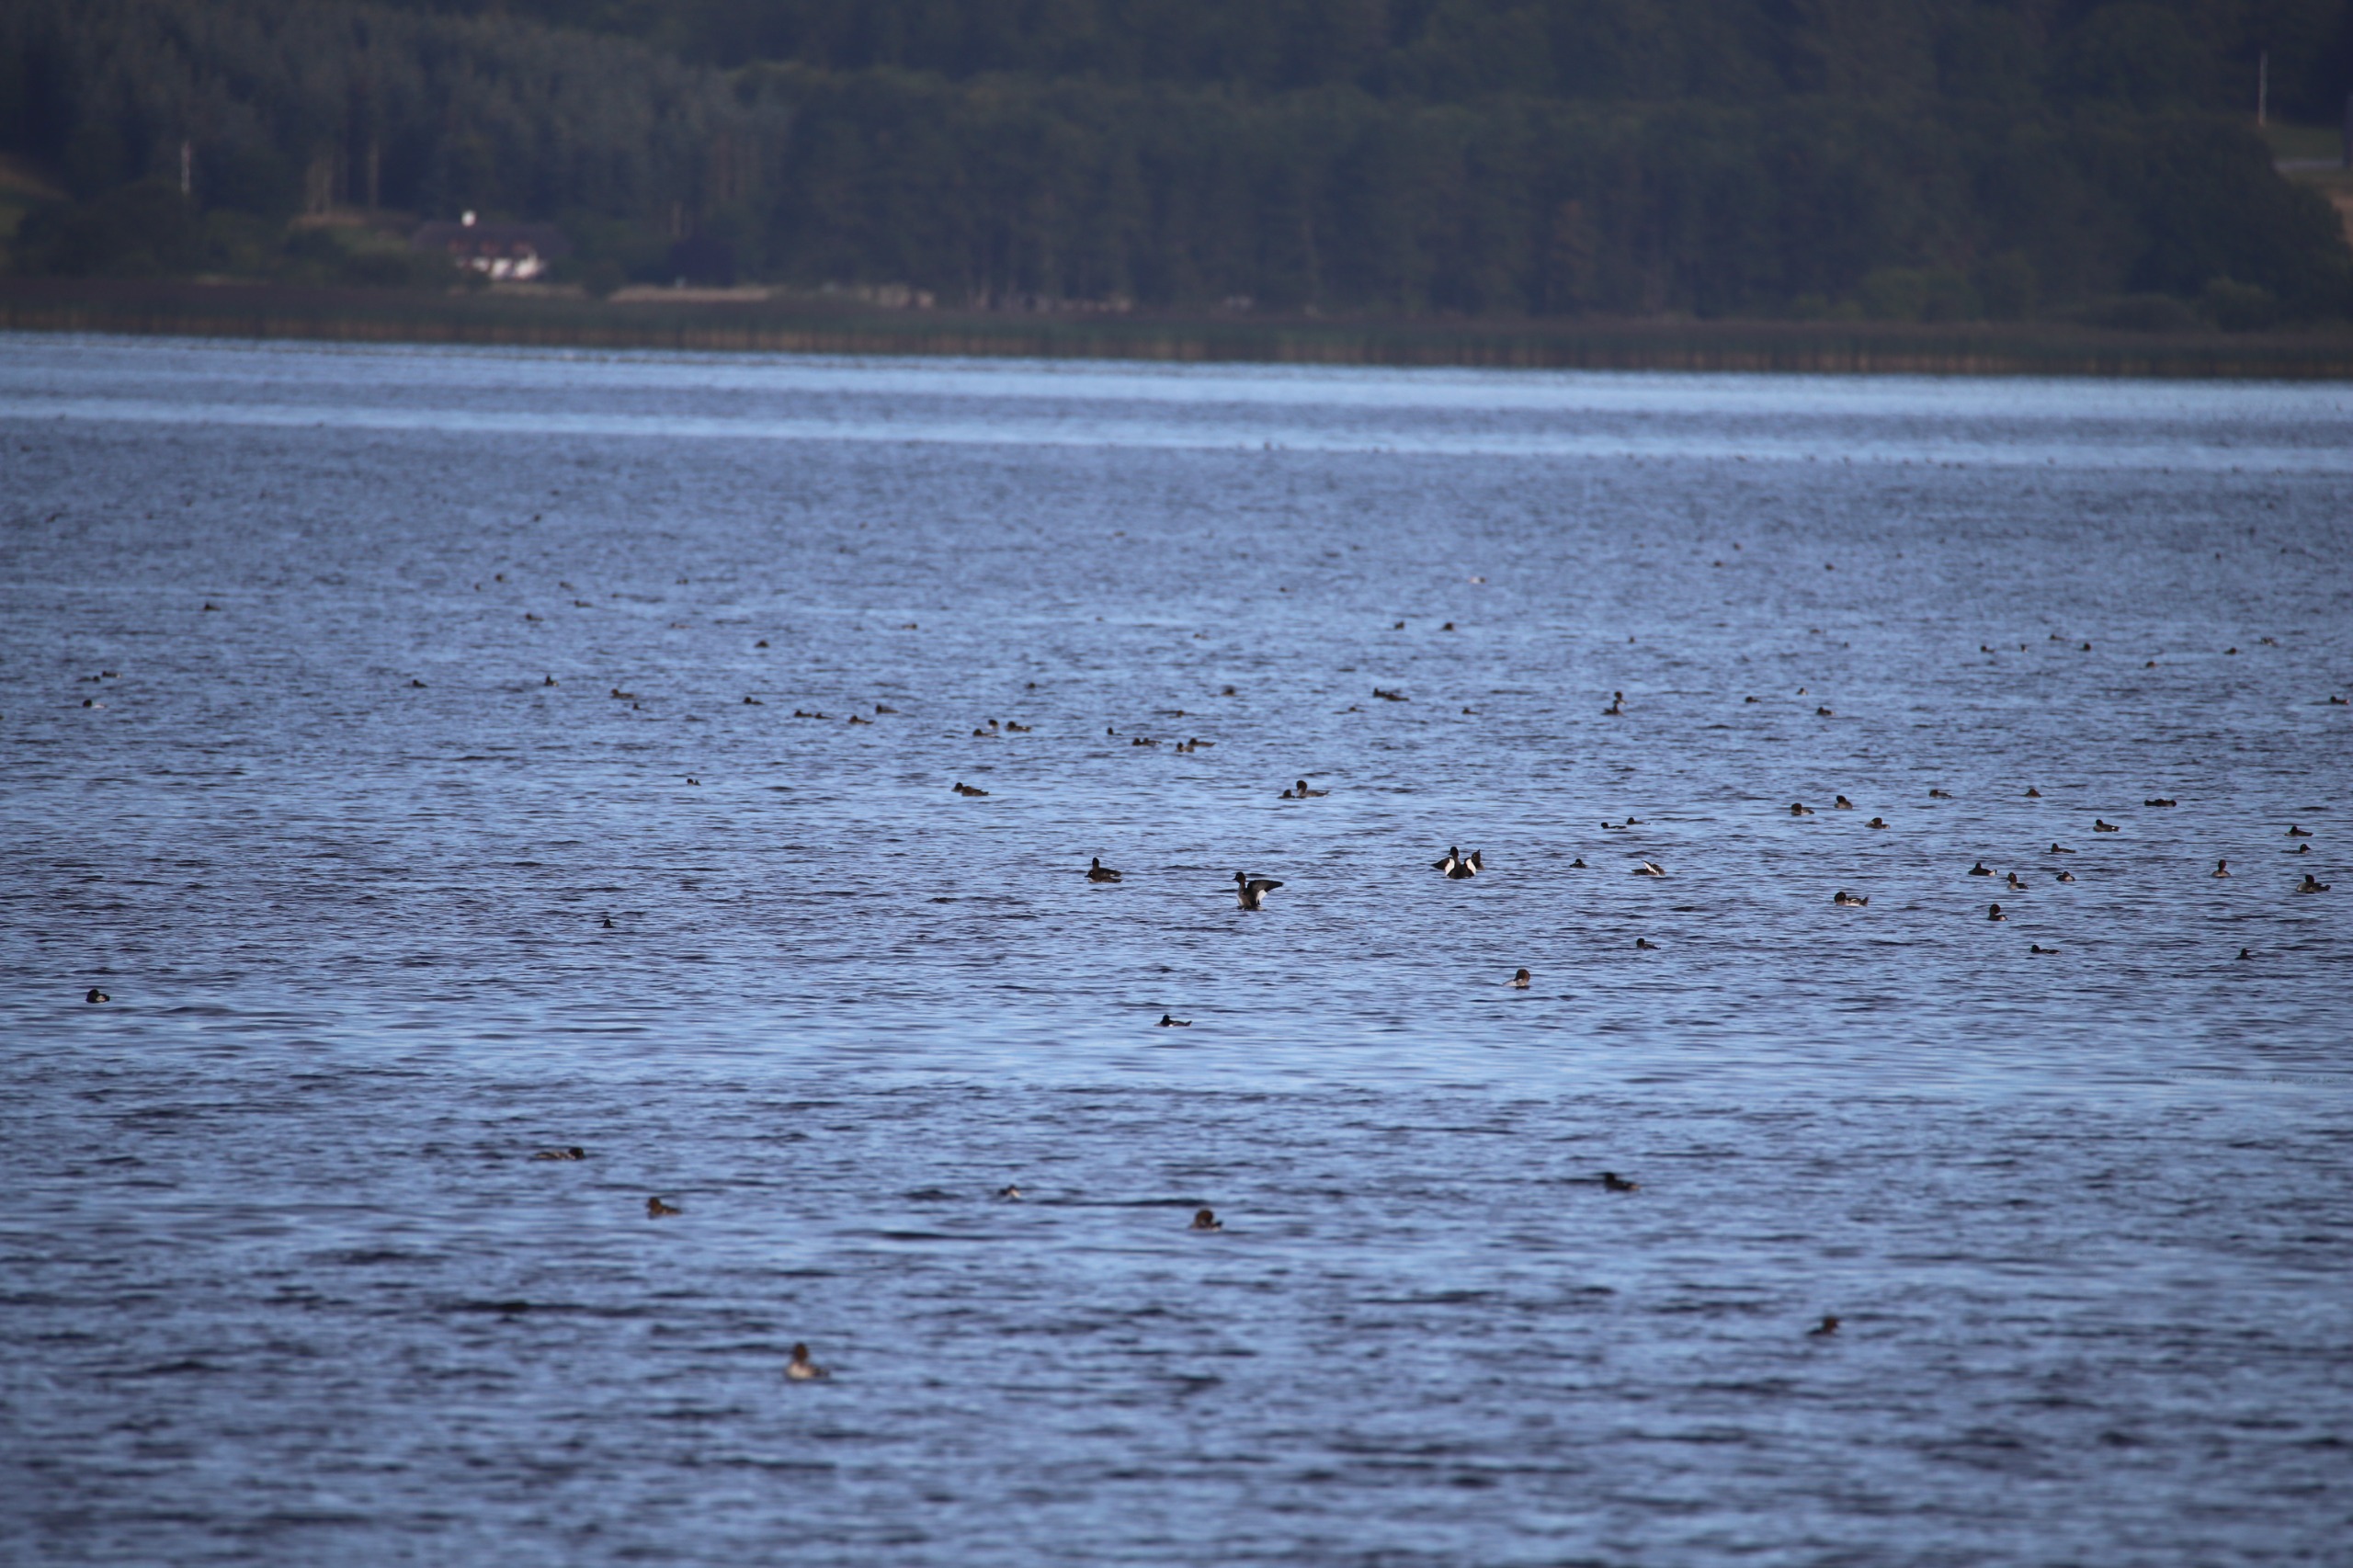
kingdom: Animalia
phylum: Chordata
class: Aves
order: Anseriformes
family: Anatidae
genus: Bucephala
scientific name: Bucephala clangula
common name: Hvinand
